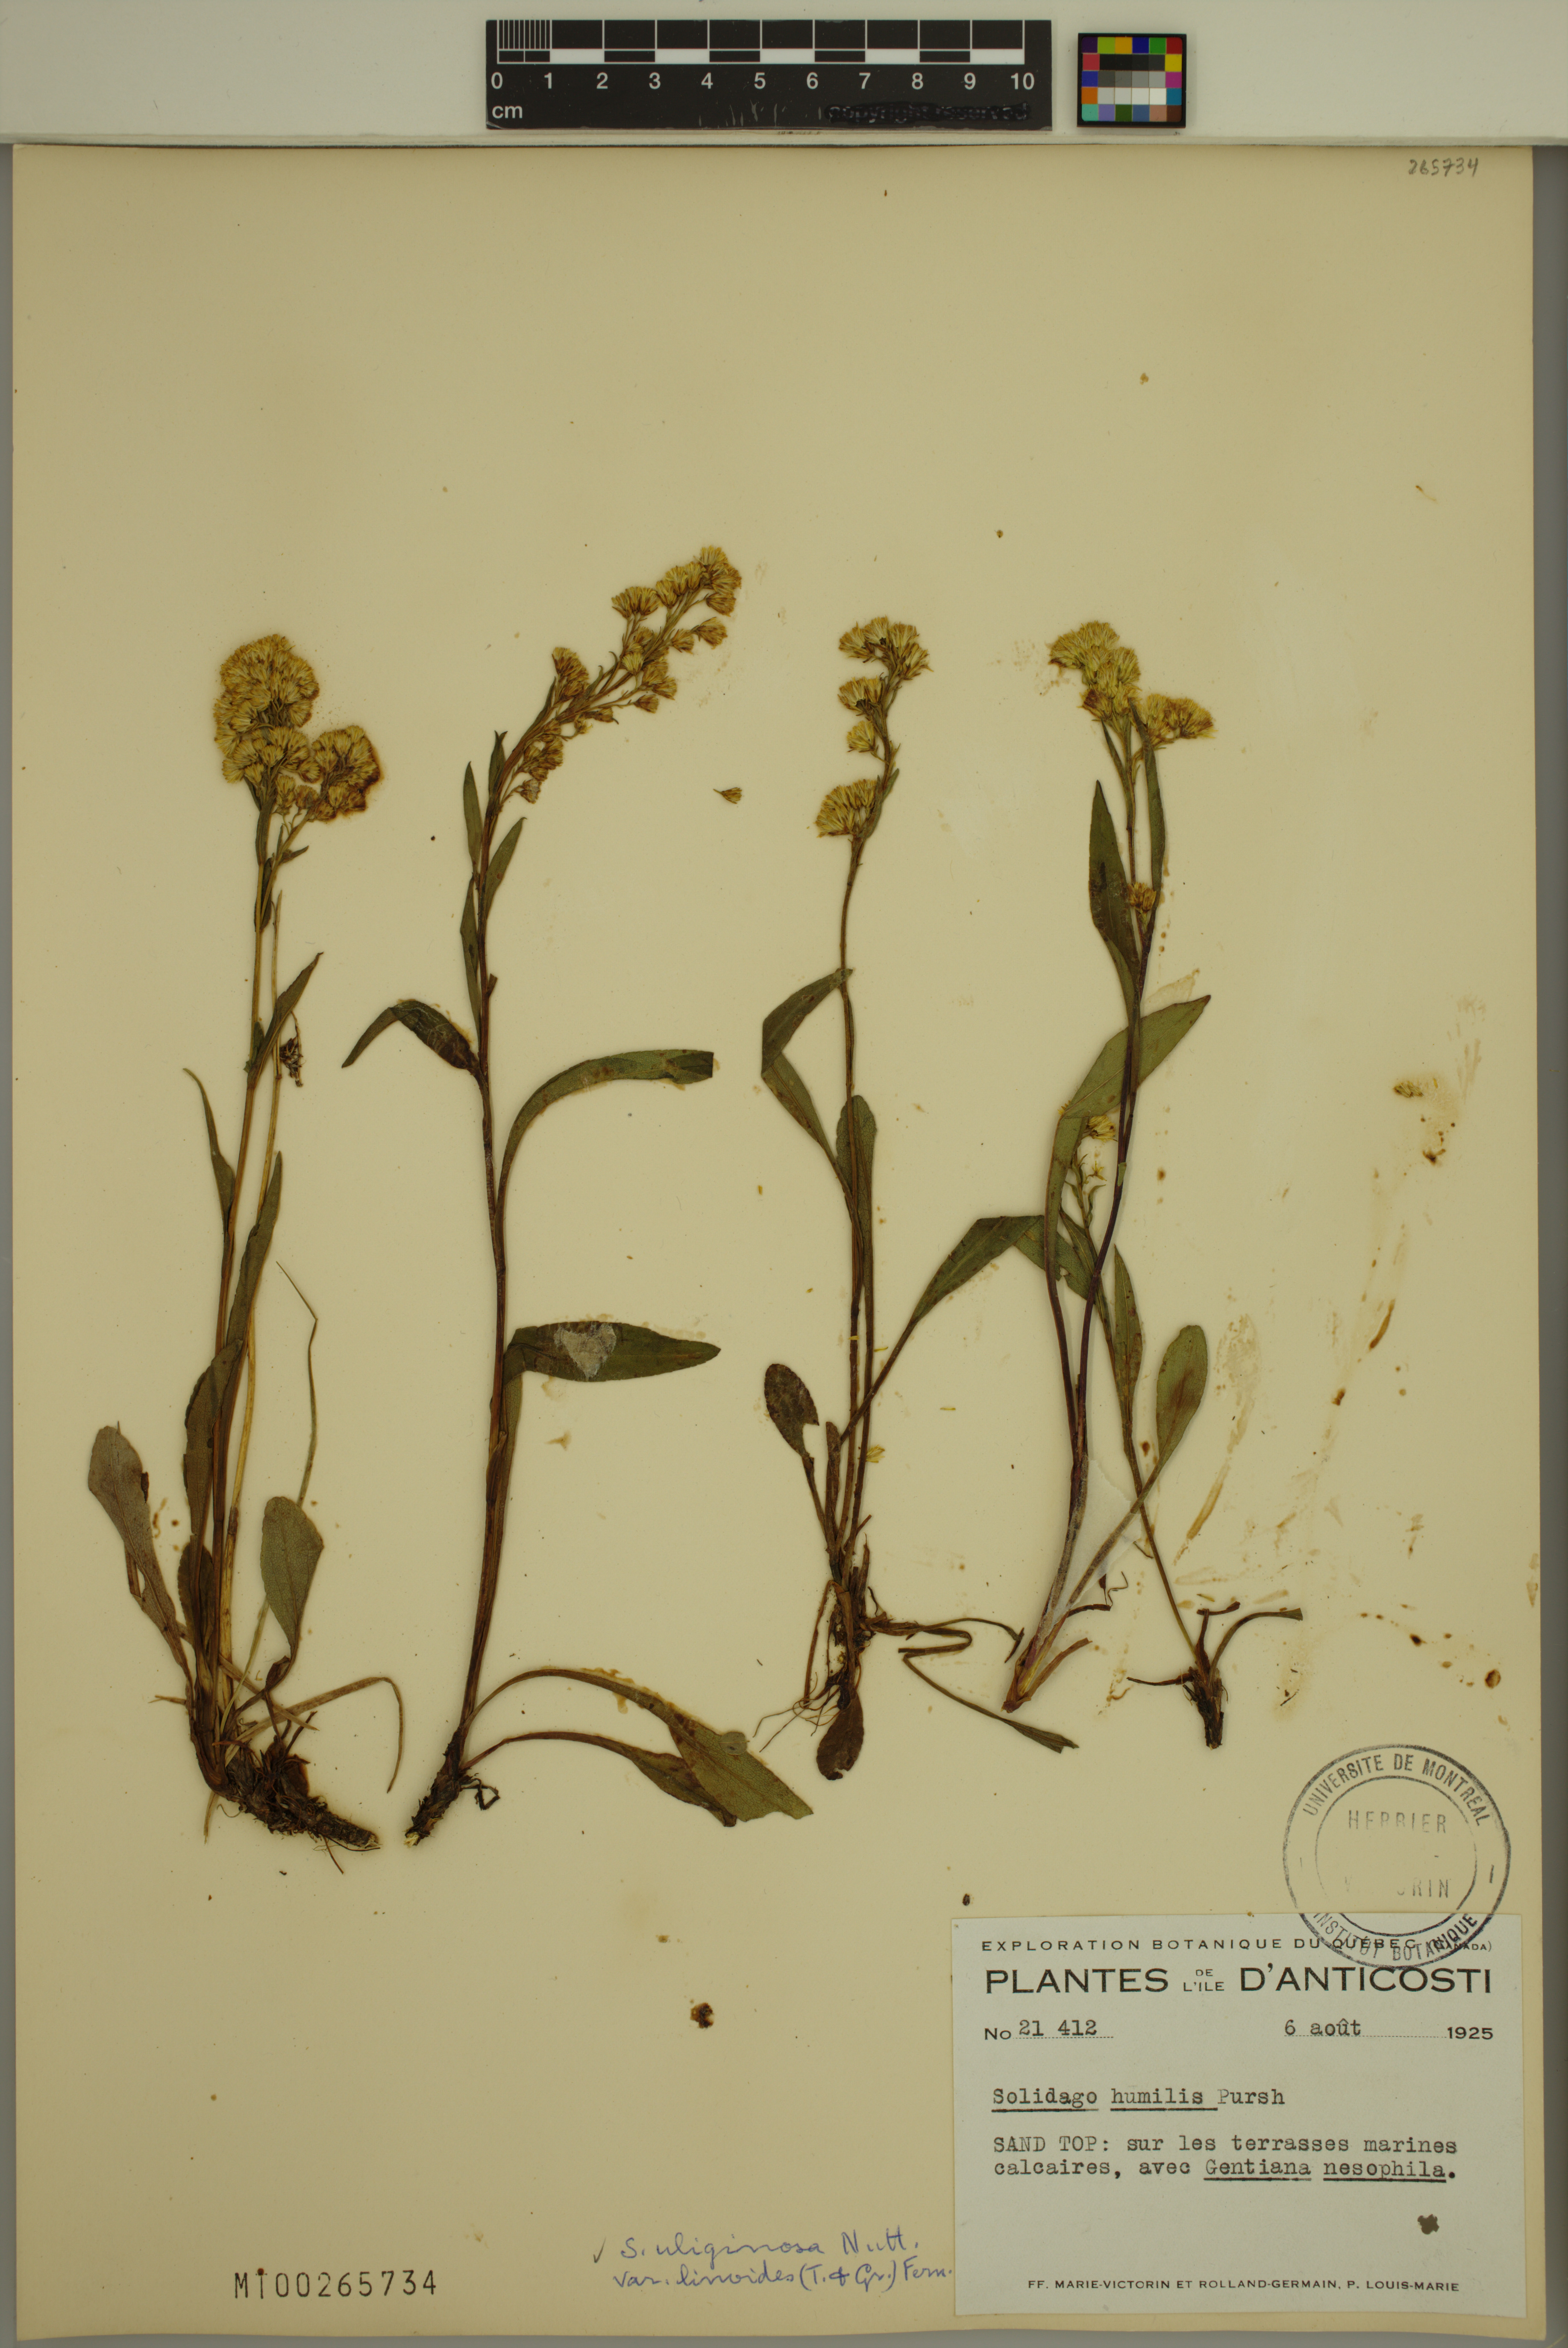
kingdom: Plantae
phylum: Tracheophyta
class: Magnoliopsida
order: Asterales
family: Asteraceae
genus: Solidago
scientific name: Solidago uliginosa
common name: Bog goldenrod
